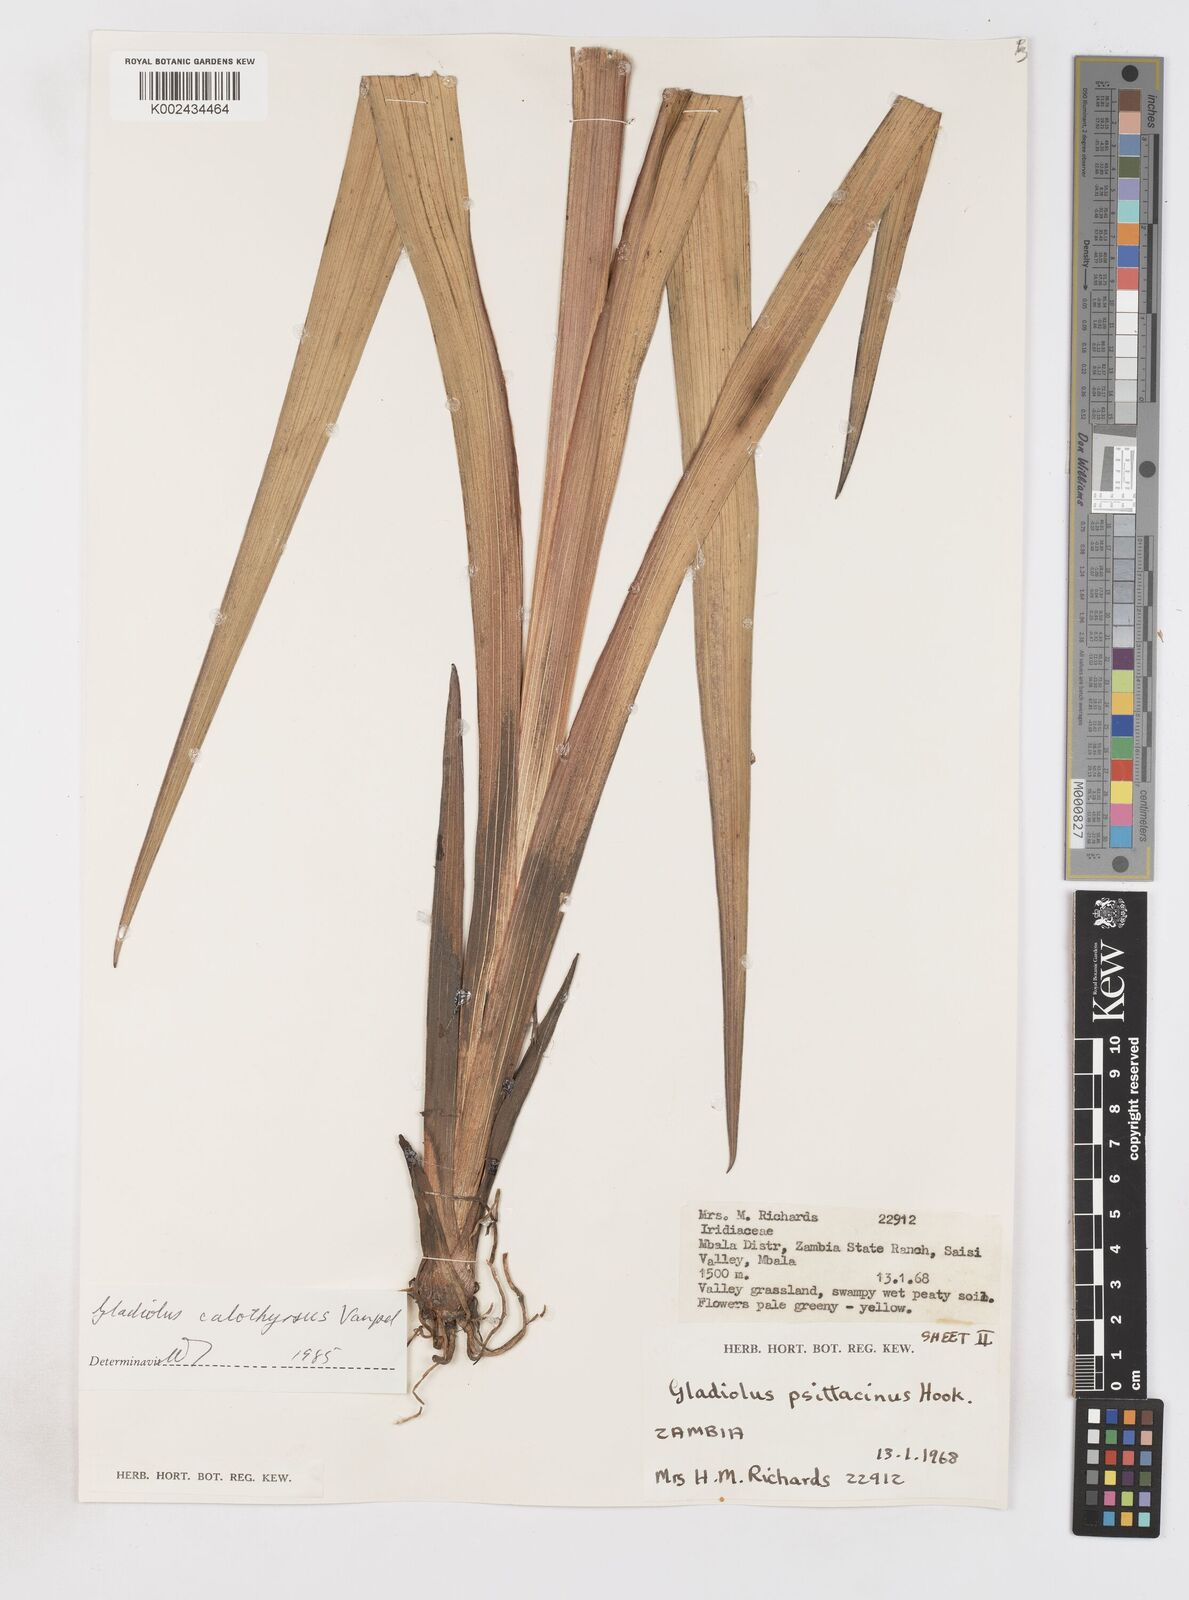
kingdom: Plantae
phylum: Tracheophyta
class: Liliopsida
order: Asparagales
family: Iridaceae
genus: Gladiolus
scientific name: Gladiolus dalenii
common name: Cornflag
